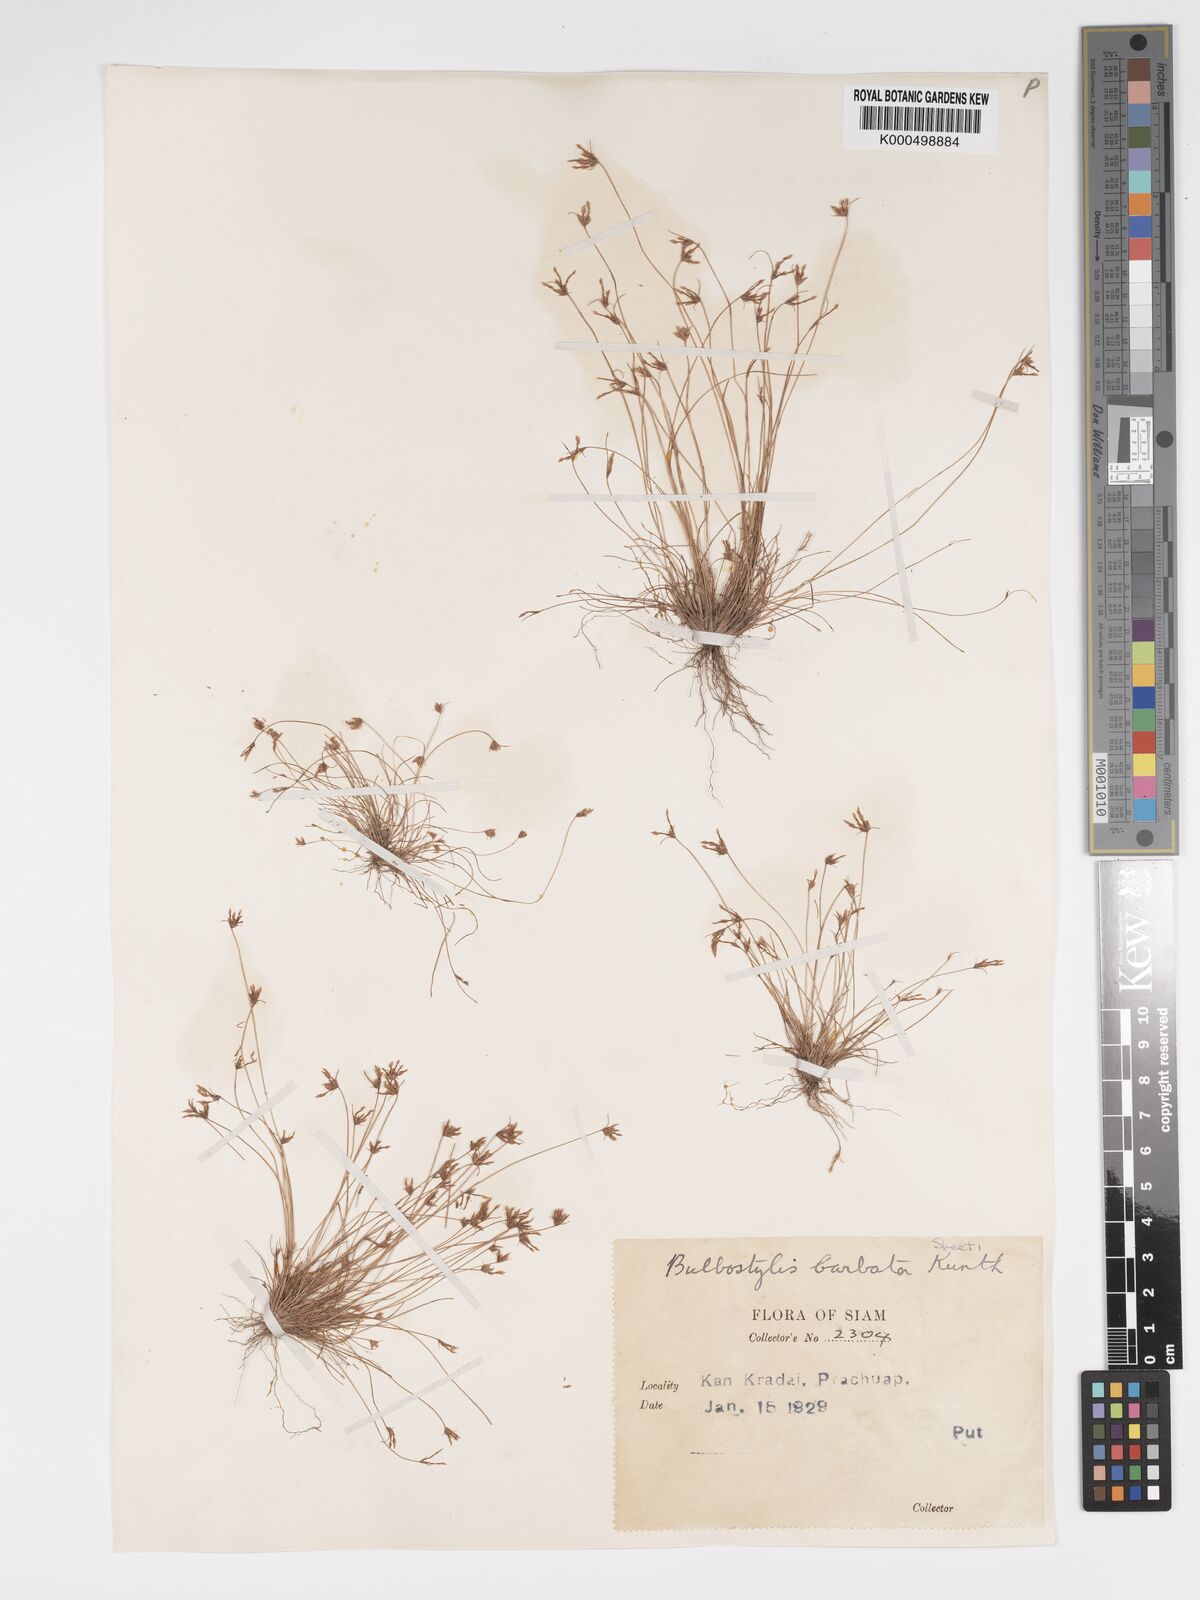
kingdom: Plantae
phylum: Tracheophyta
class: Liliopsida
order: Poales
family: Cyperaceae
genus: Bulbostylis
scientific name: Bulbostylis barbata
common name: Watergrass
